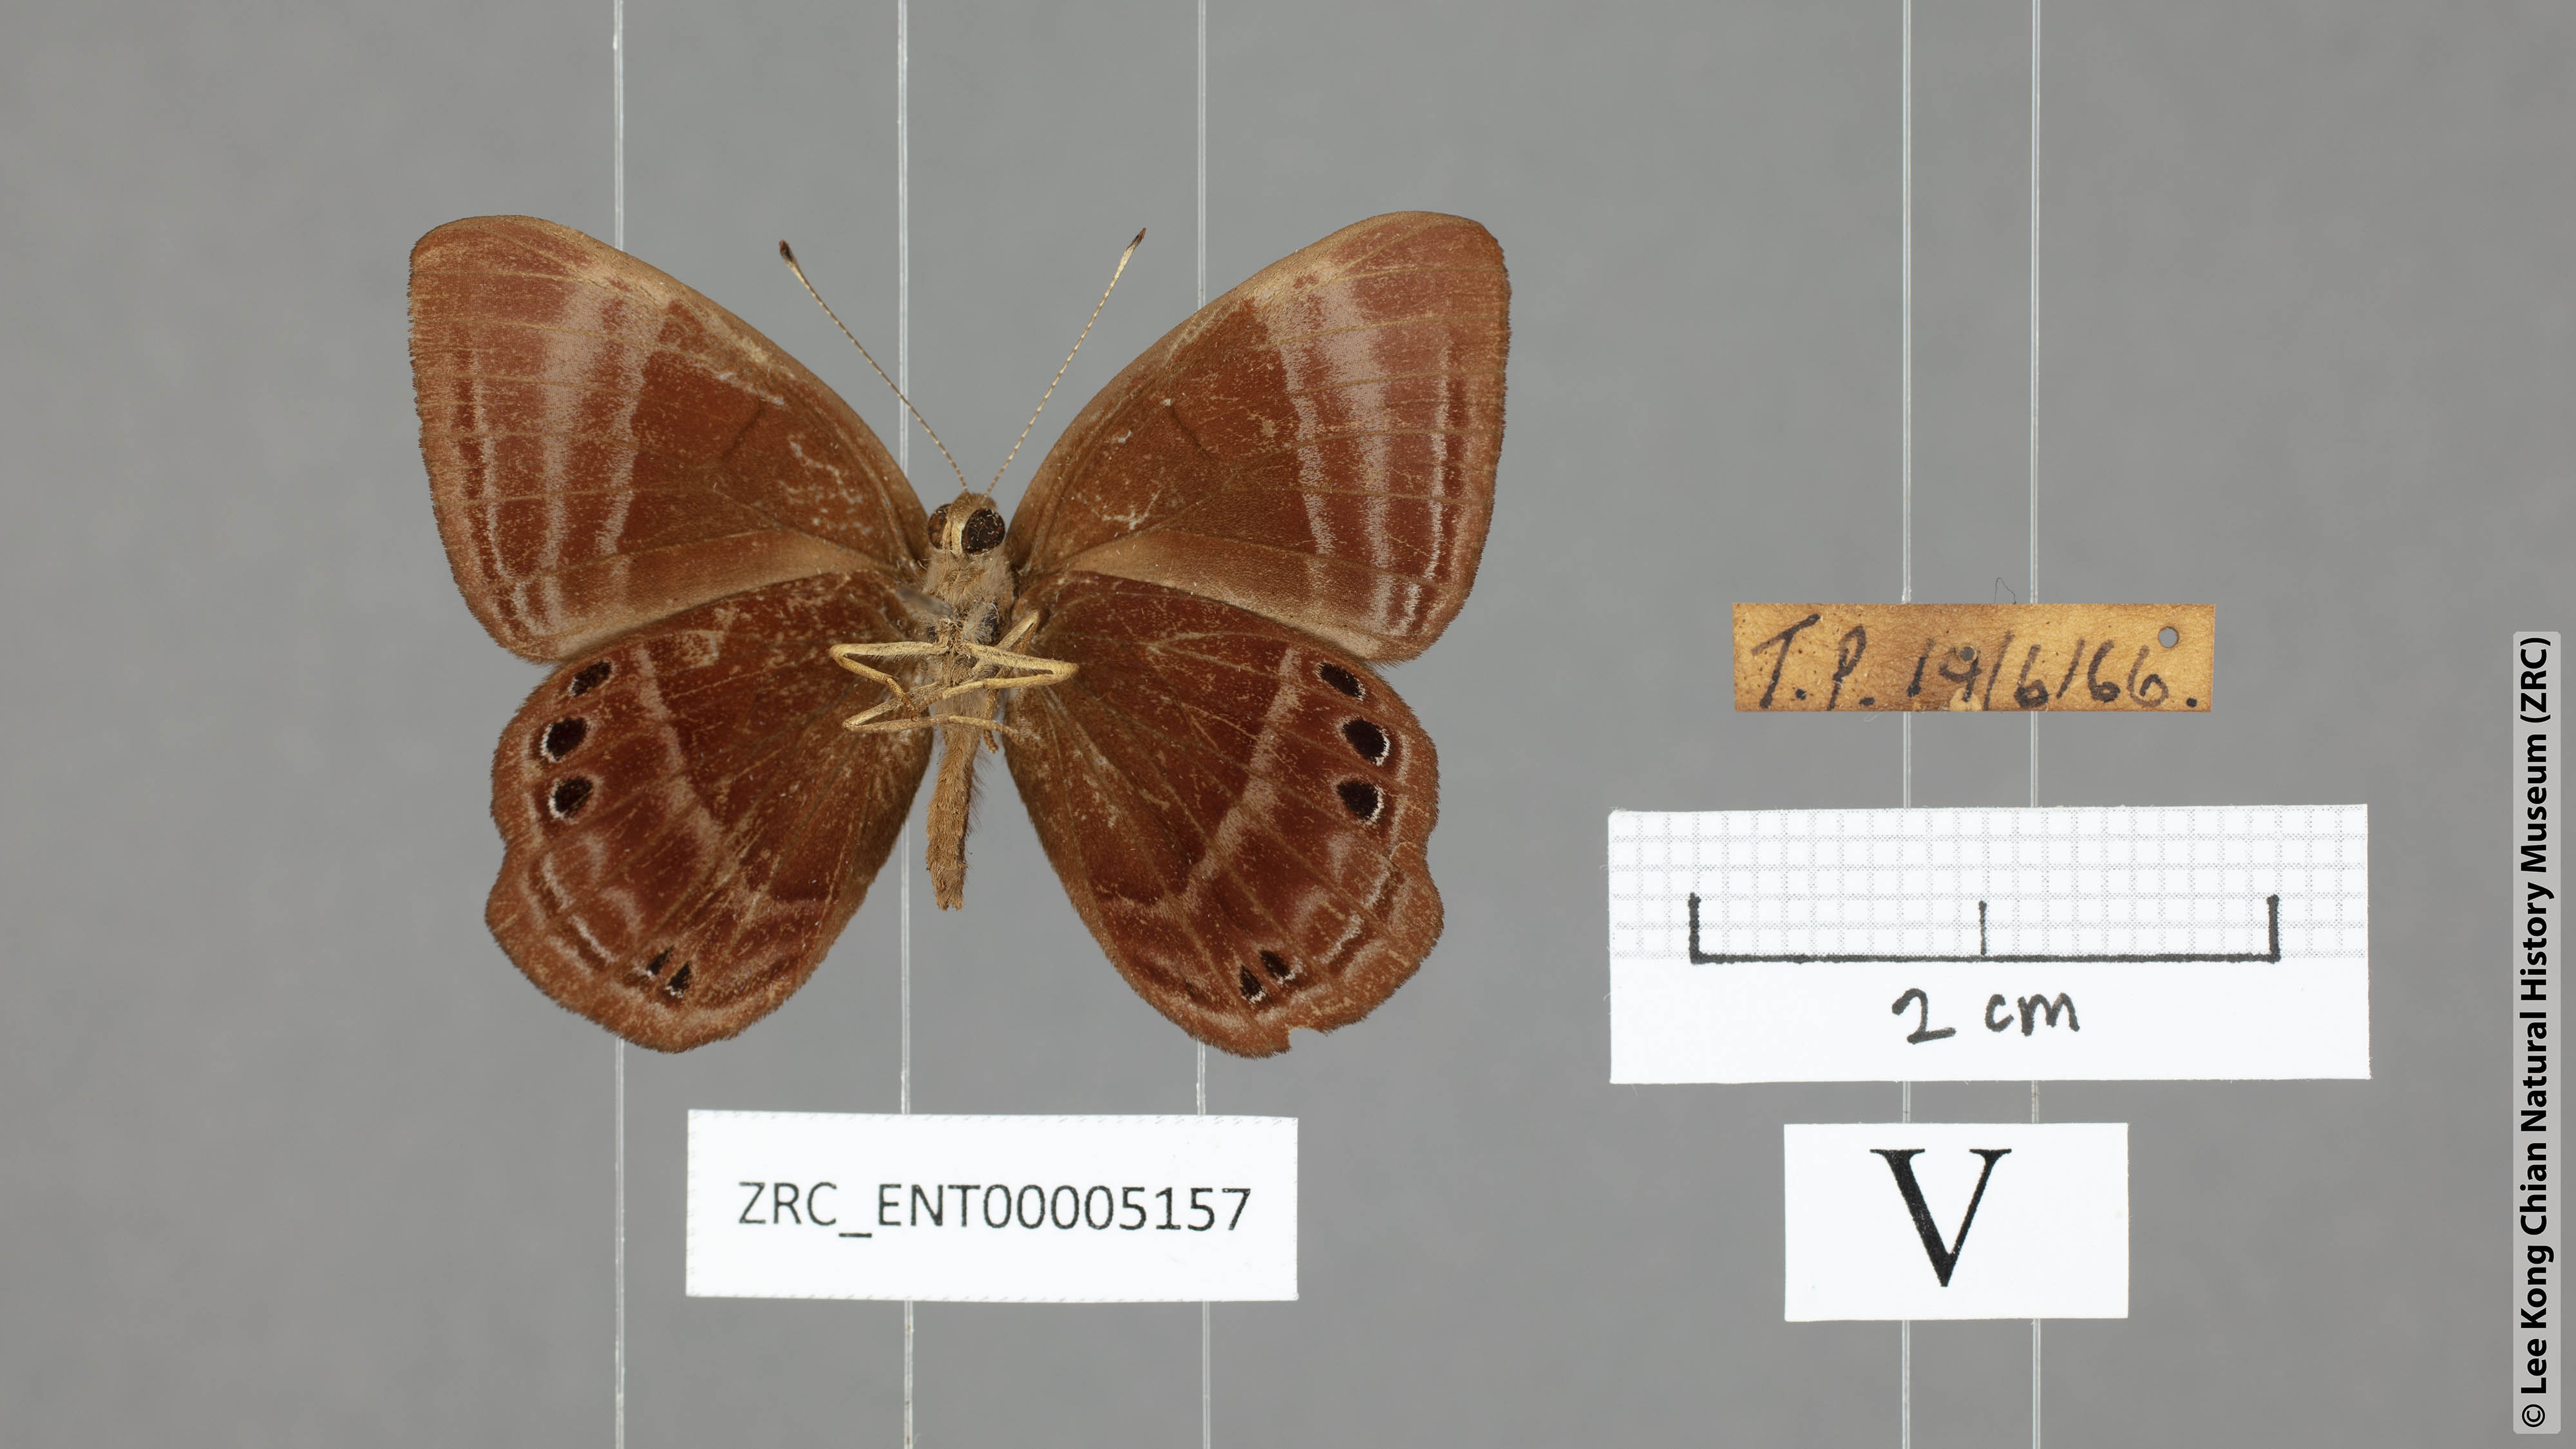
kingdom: Animalia
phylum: Arthropoda
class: Insecta
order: Lepidoptera
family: Lycaenidae
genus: Abisara
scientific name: Abisara geza
